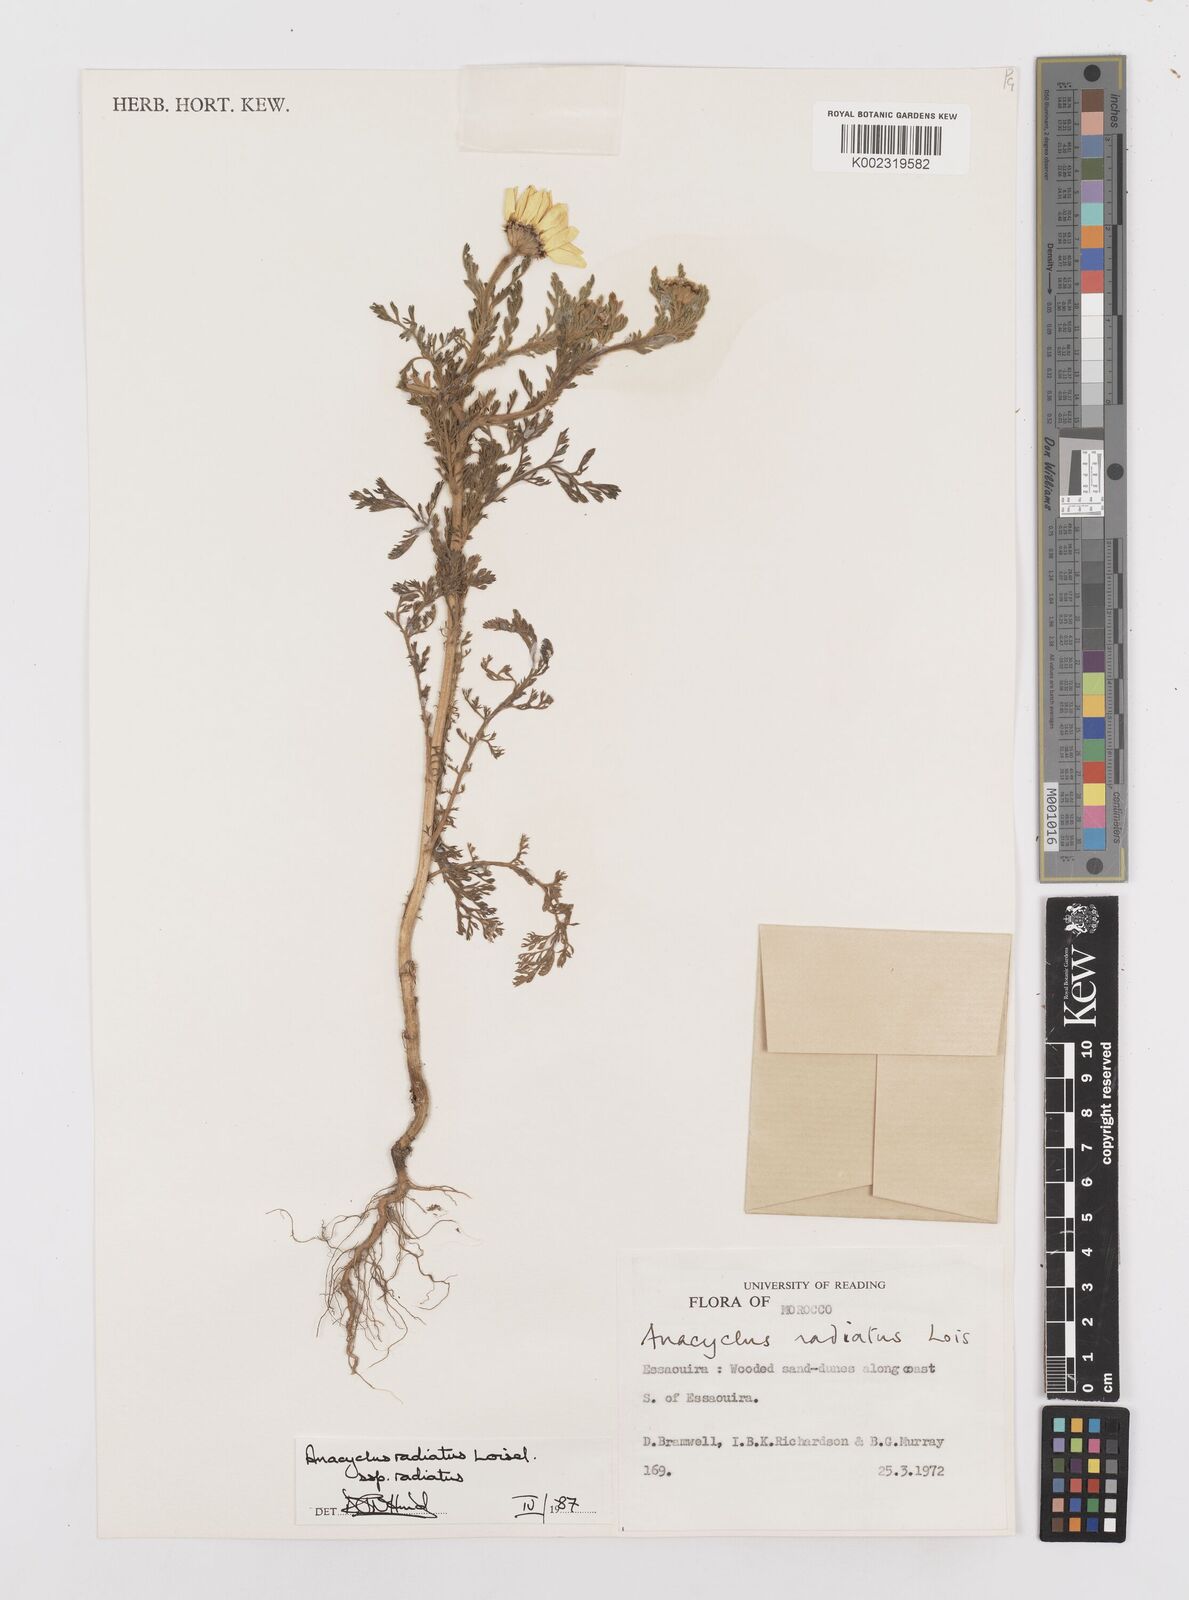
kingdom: Plantae
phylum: Tracheophyta
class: Magnoliopsida
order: Asterales
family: Asteraceae
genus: Anacyclus
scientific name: Anacyclus radiatus
